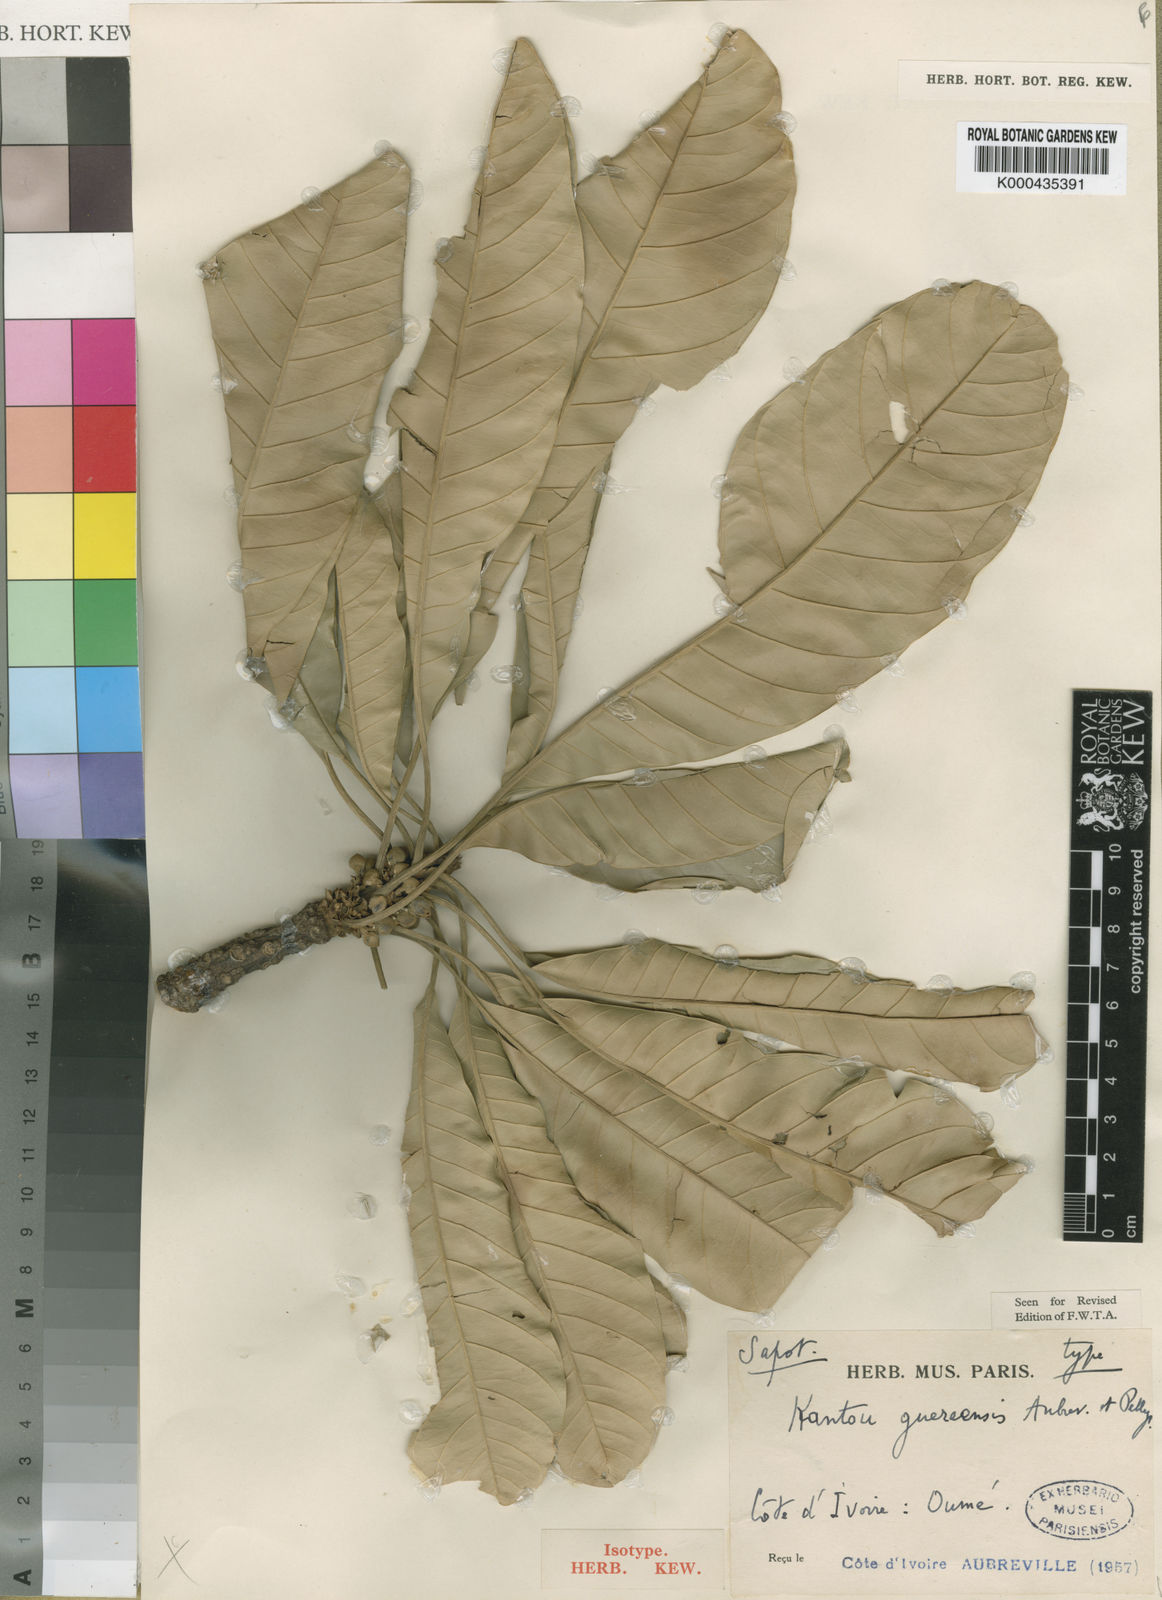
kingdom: Plantae
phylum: Tracheophyta
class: Magnoliopsida
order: Ericales
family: Sapotaceae
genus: Inhambanella
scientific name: Inhambanella
